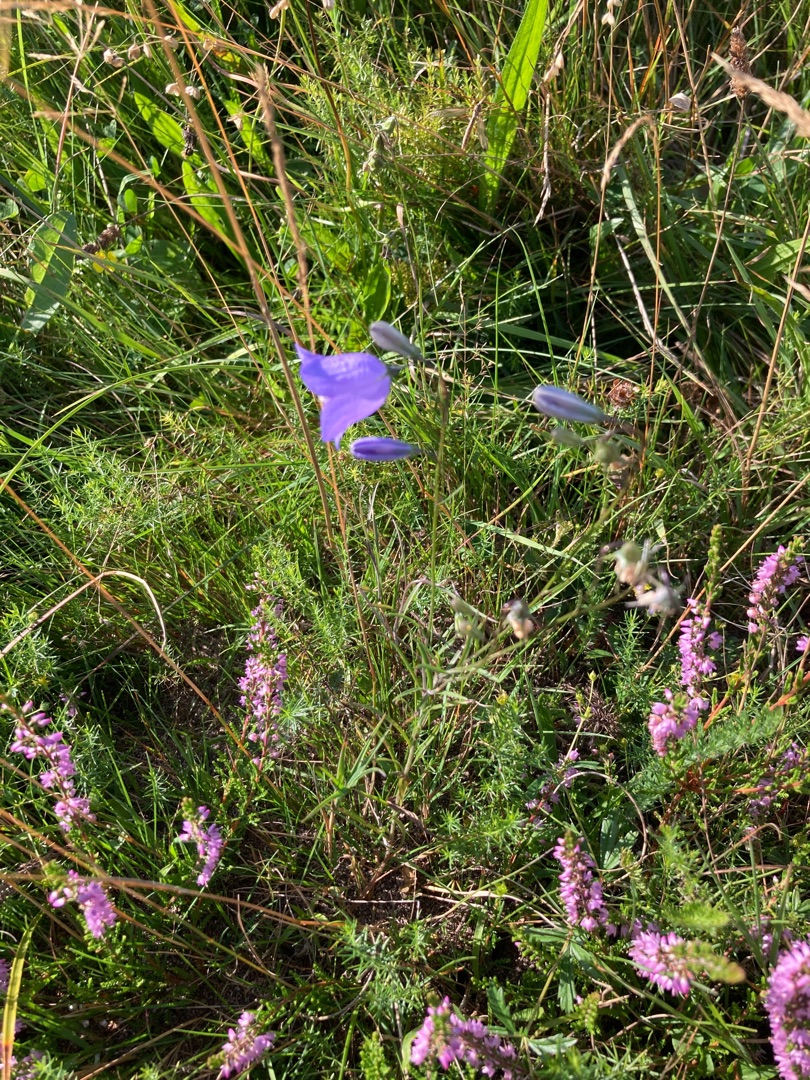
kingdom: Plantae
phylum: Tracheophyta
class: Magnoliopsida
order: Asterales
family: Campanulaceae
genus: Campanula
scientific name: Campanula rotundifolia
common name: Liden klokke
